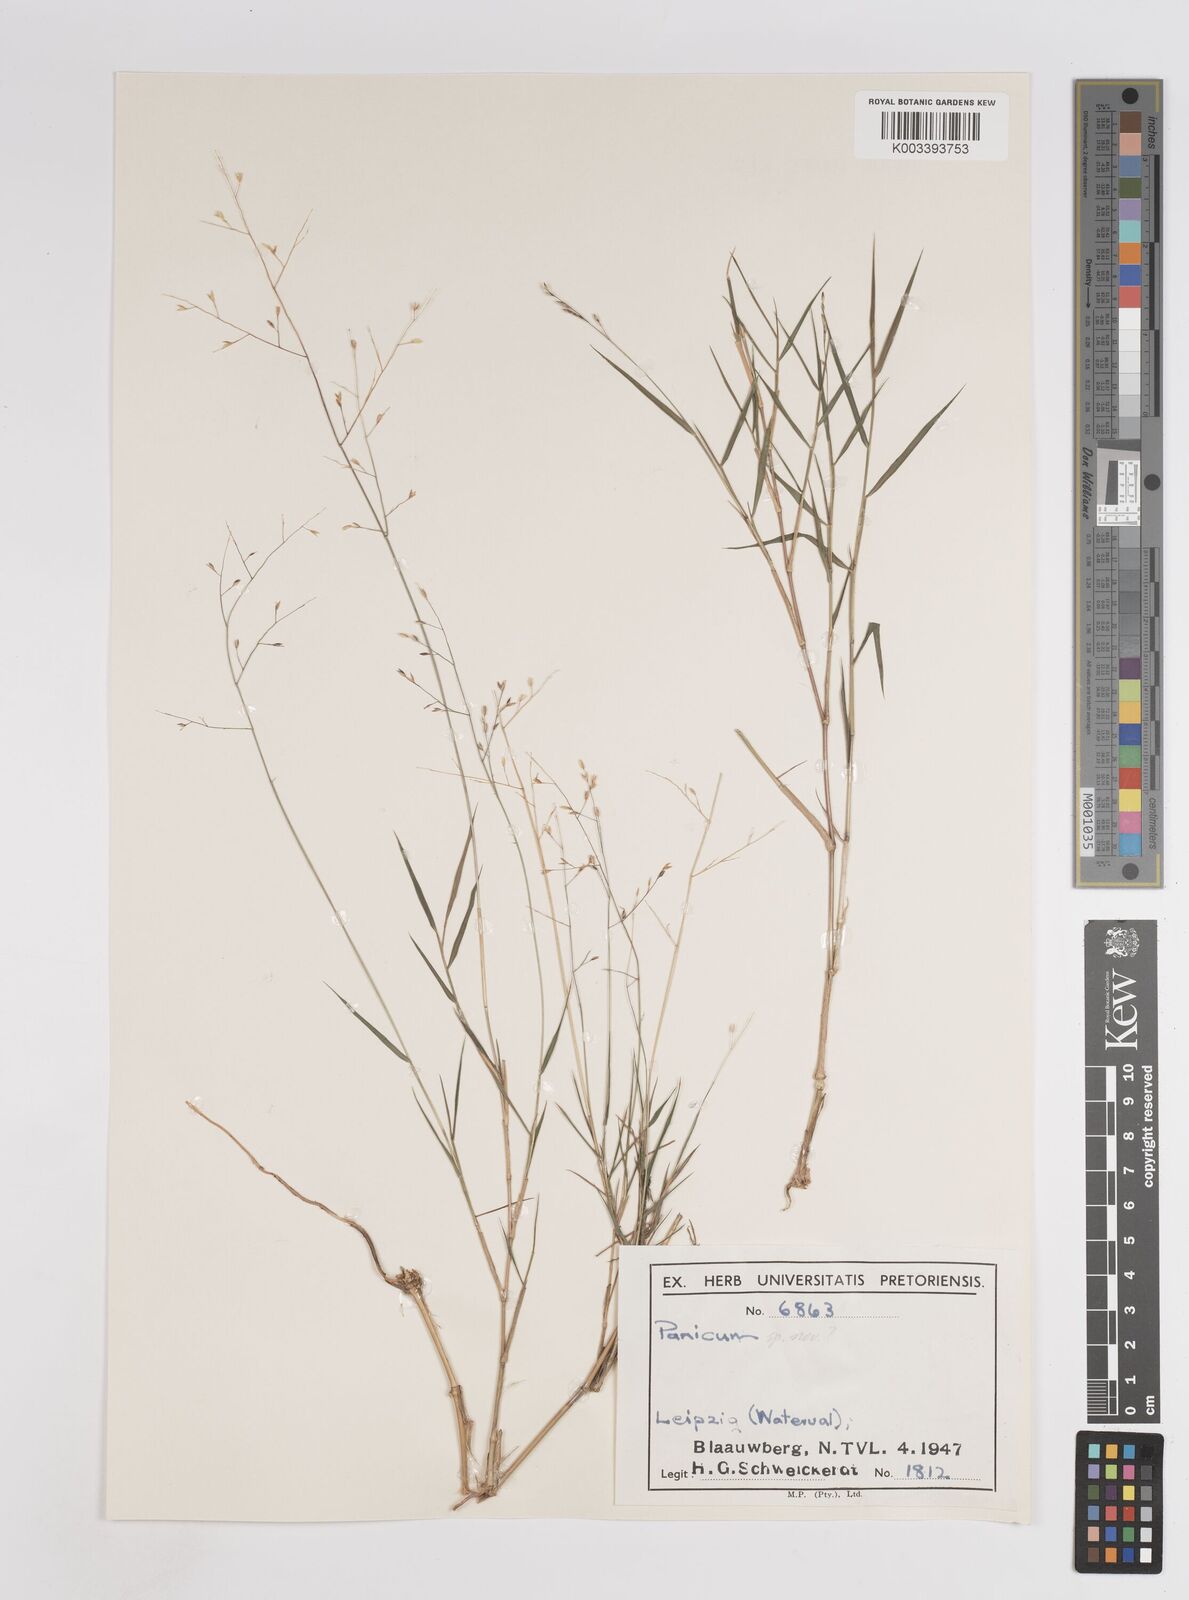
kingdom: Plantae
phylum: Tracheophyta
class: Liliopsida
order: Poales
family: Poaceae
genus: Panicum
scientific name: Panicum dewinteri
